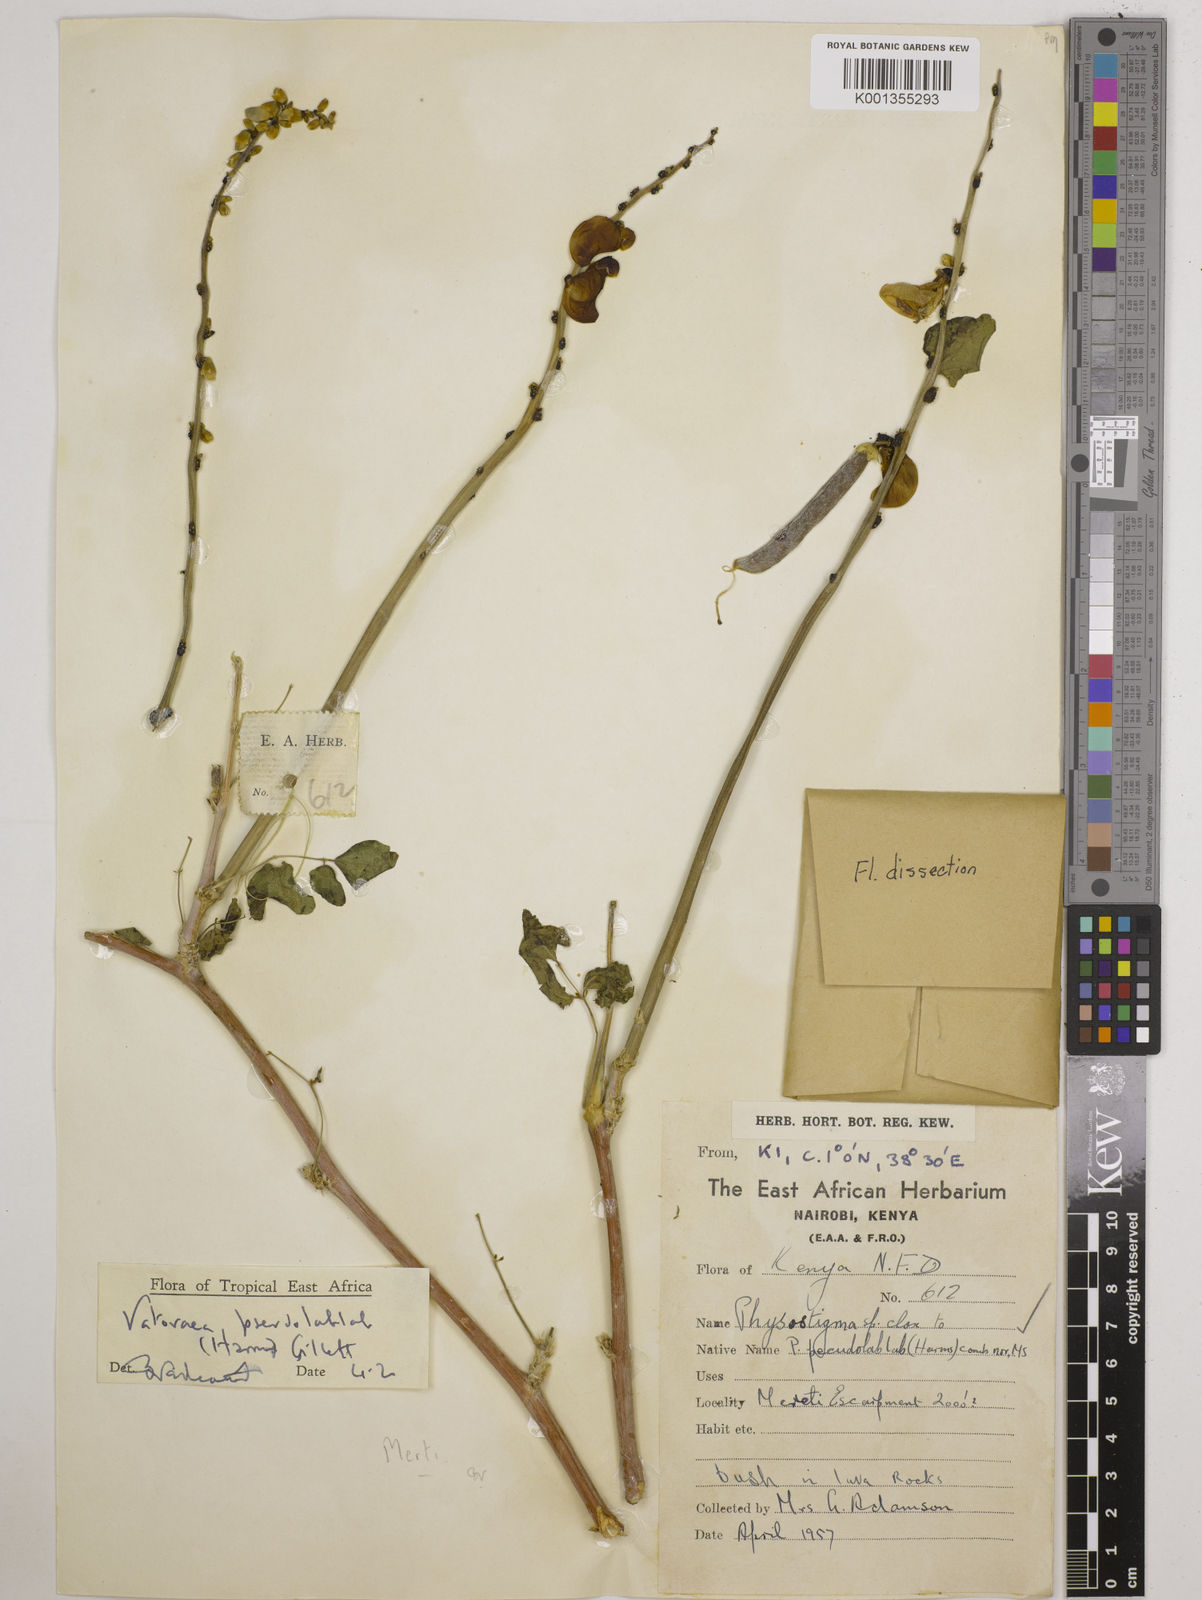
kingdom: Plantae
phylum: Tracheophyta
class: Magnoliopsida
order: Fabales
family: Fabaceae
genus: Vatovaea
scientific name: Vatovaea pseudolablab
